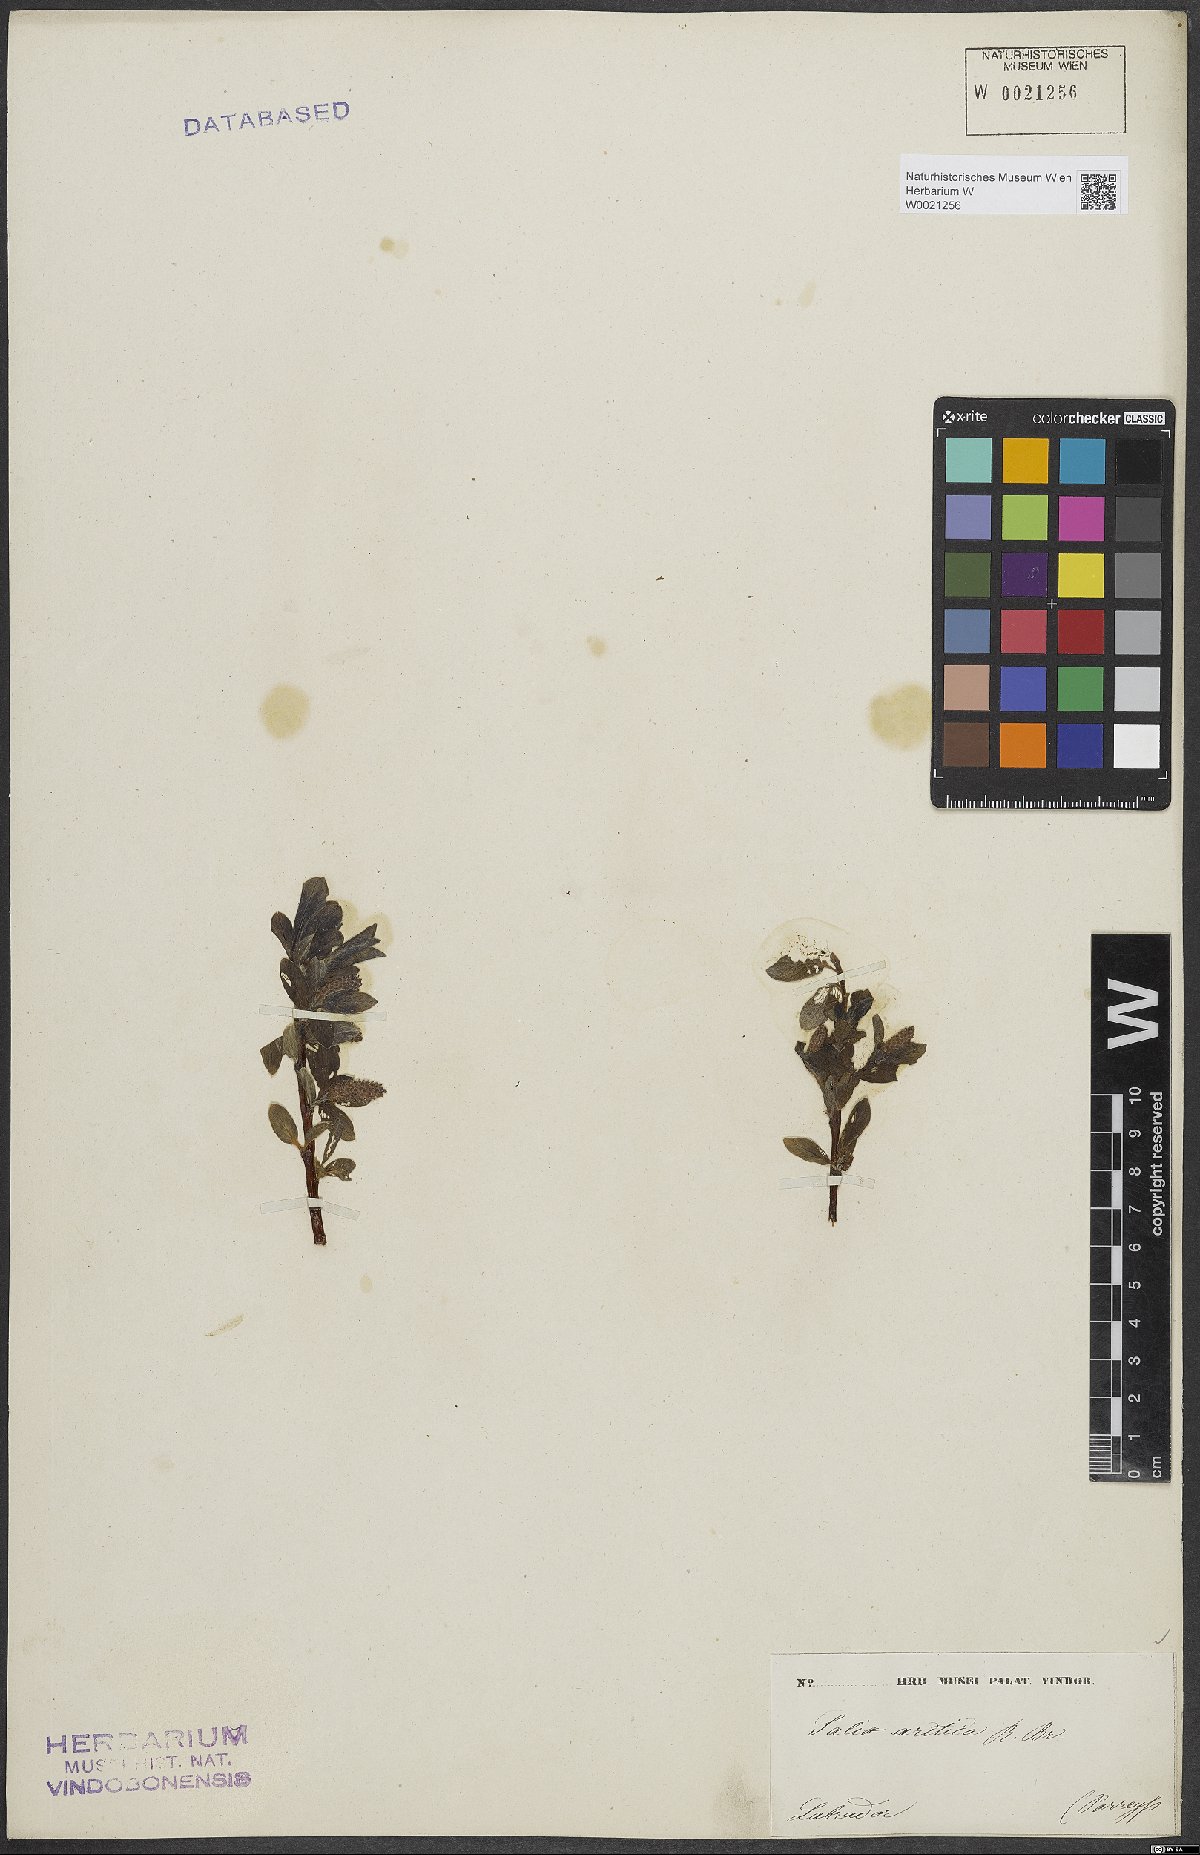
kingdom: Plantae
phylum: Tracheophyta
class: Magnoliopsida
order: Malpighiales
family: Salicaceae
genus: Salix
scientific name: Salix arctica
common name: Arctic willow
